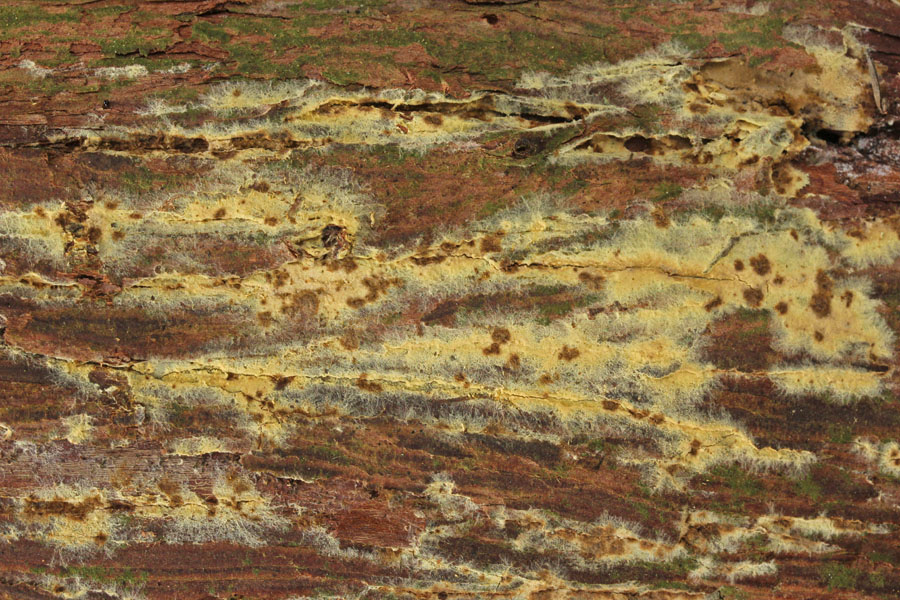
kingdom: Fungi
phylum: Basidiomycota
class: Agaricomycetes
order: Boletales
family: Coniophoraceae
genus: Coniophora
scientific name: Coniophora puteana
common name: gul tømmersvamp
